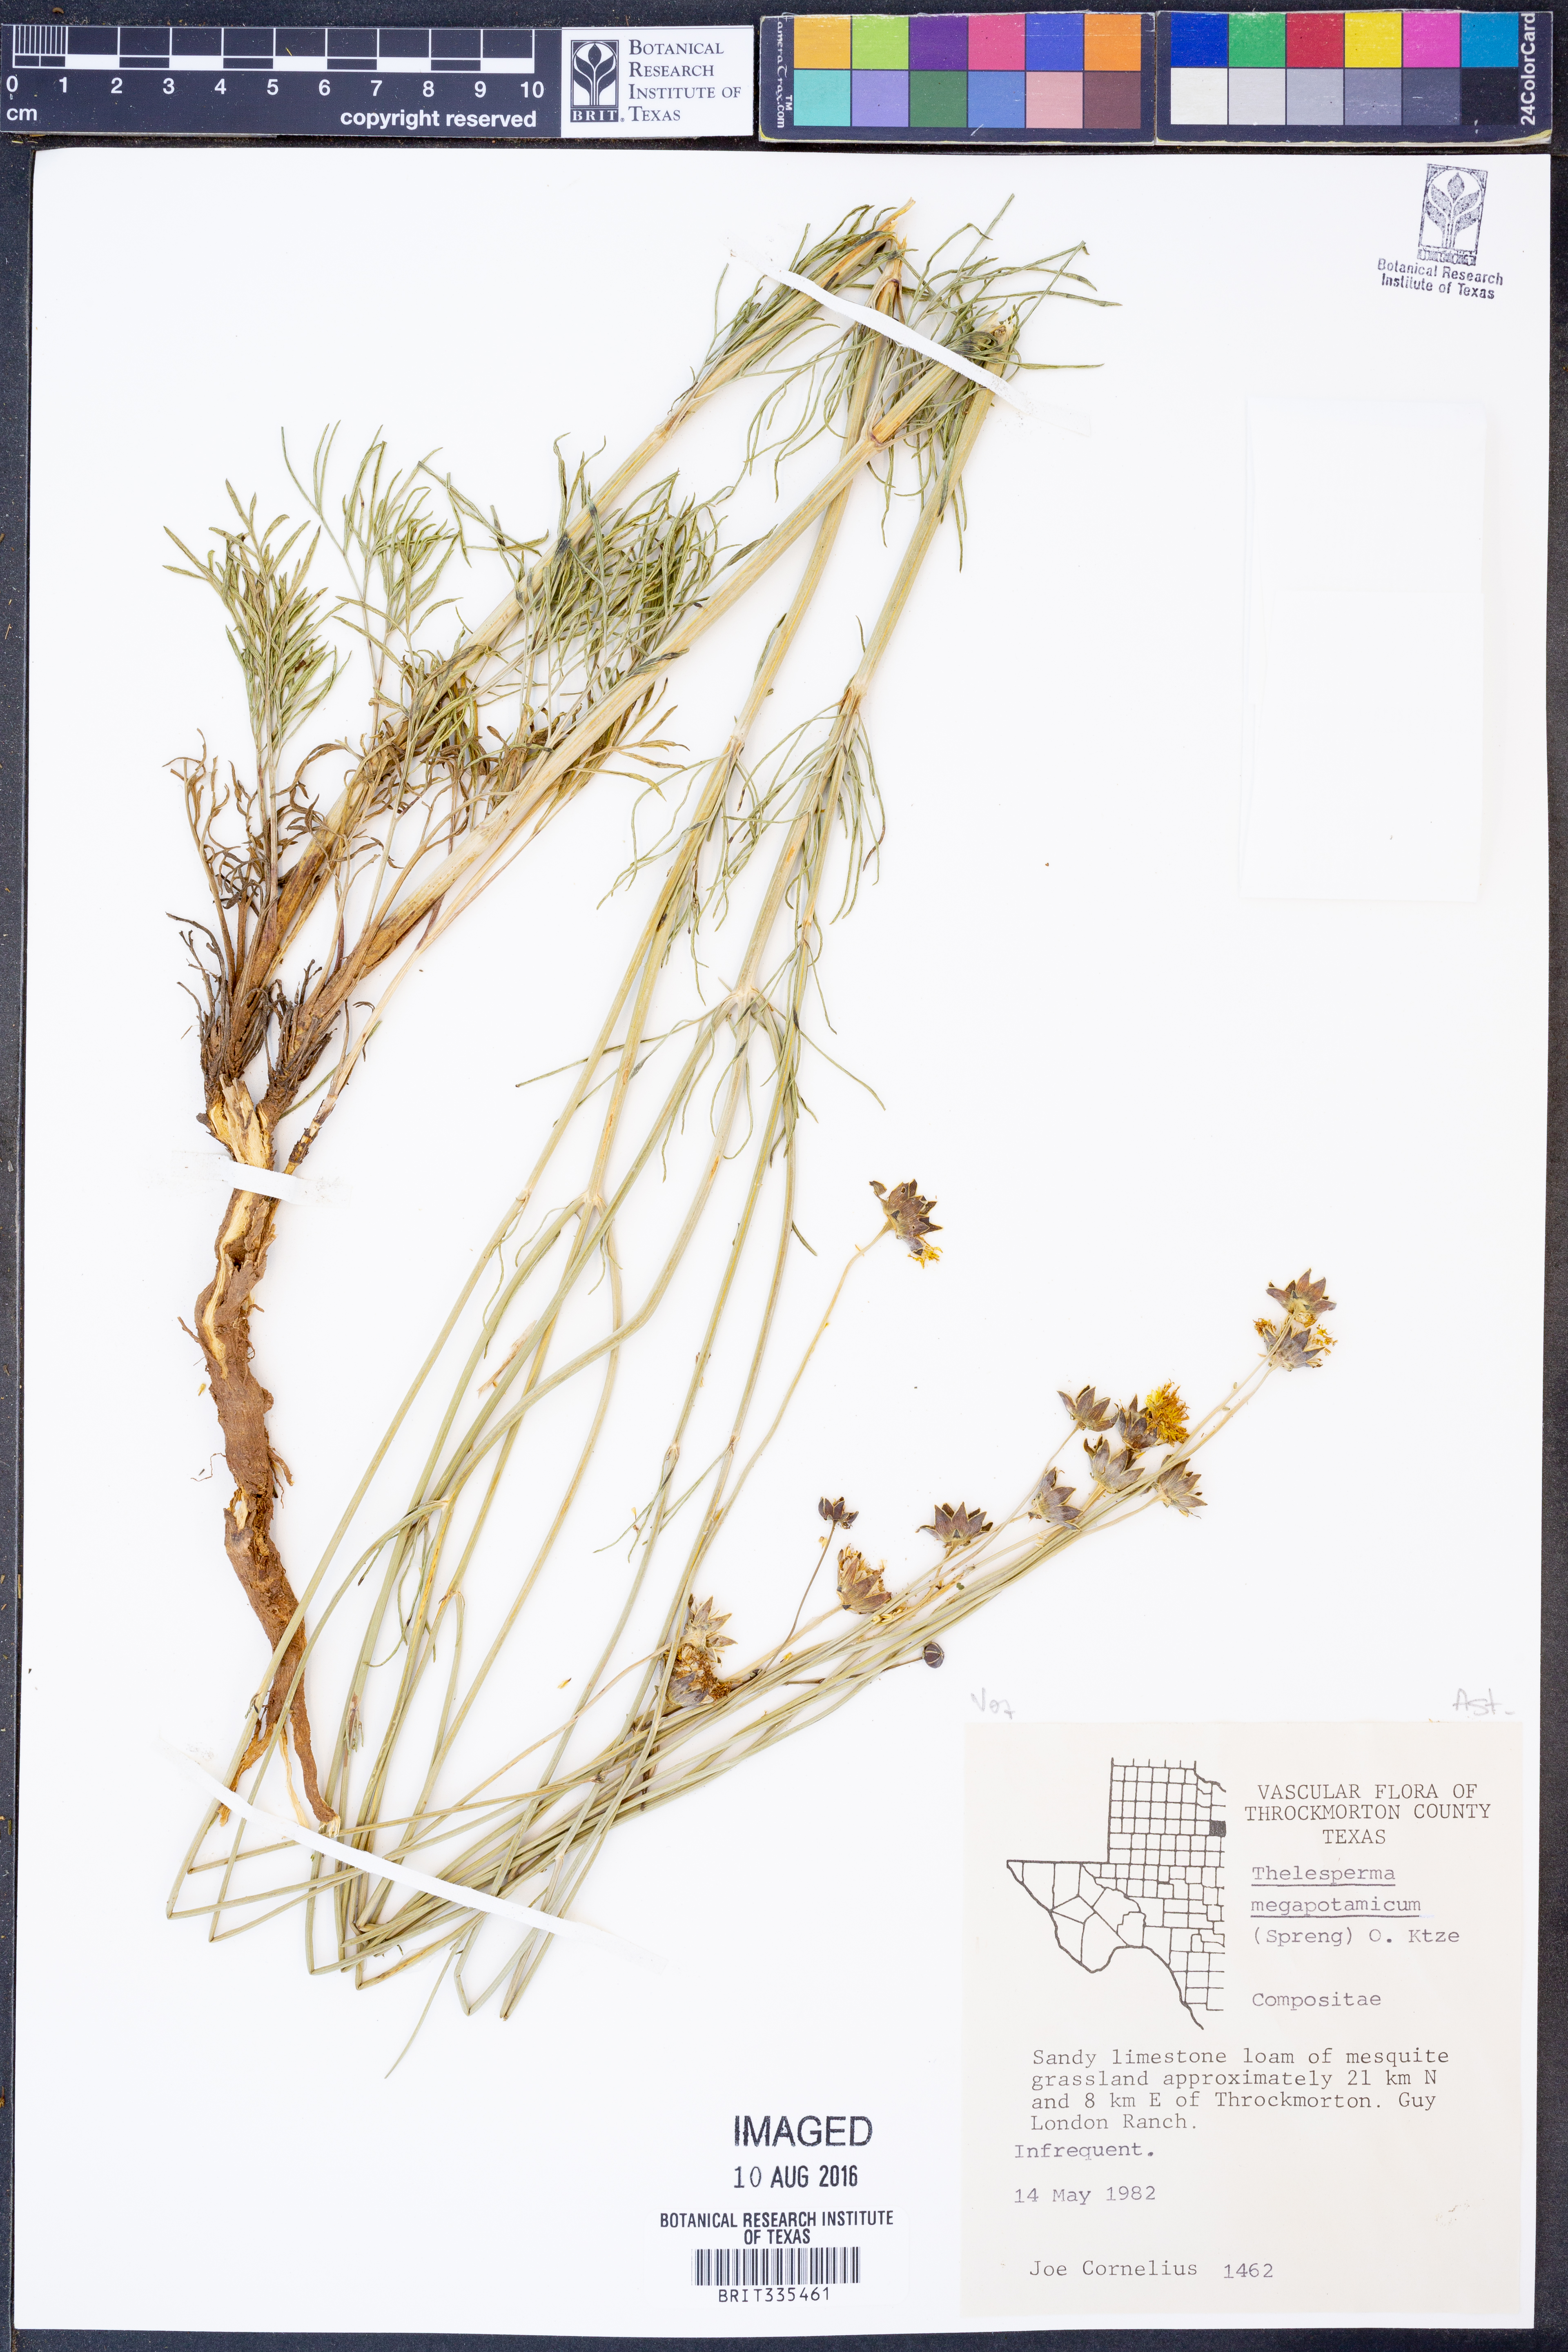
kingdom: Plantae
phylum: Tracheophyta
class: Magnoliopsida
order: Asterales
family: Asteraceae
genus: Thelesperma
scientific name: Thelesperma megapotamicum
